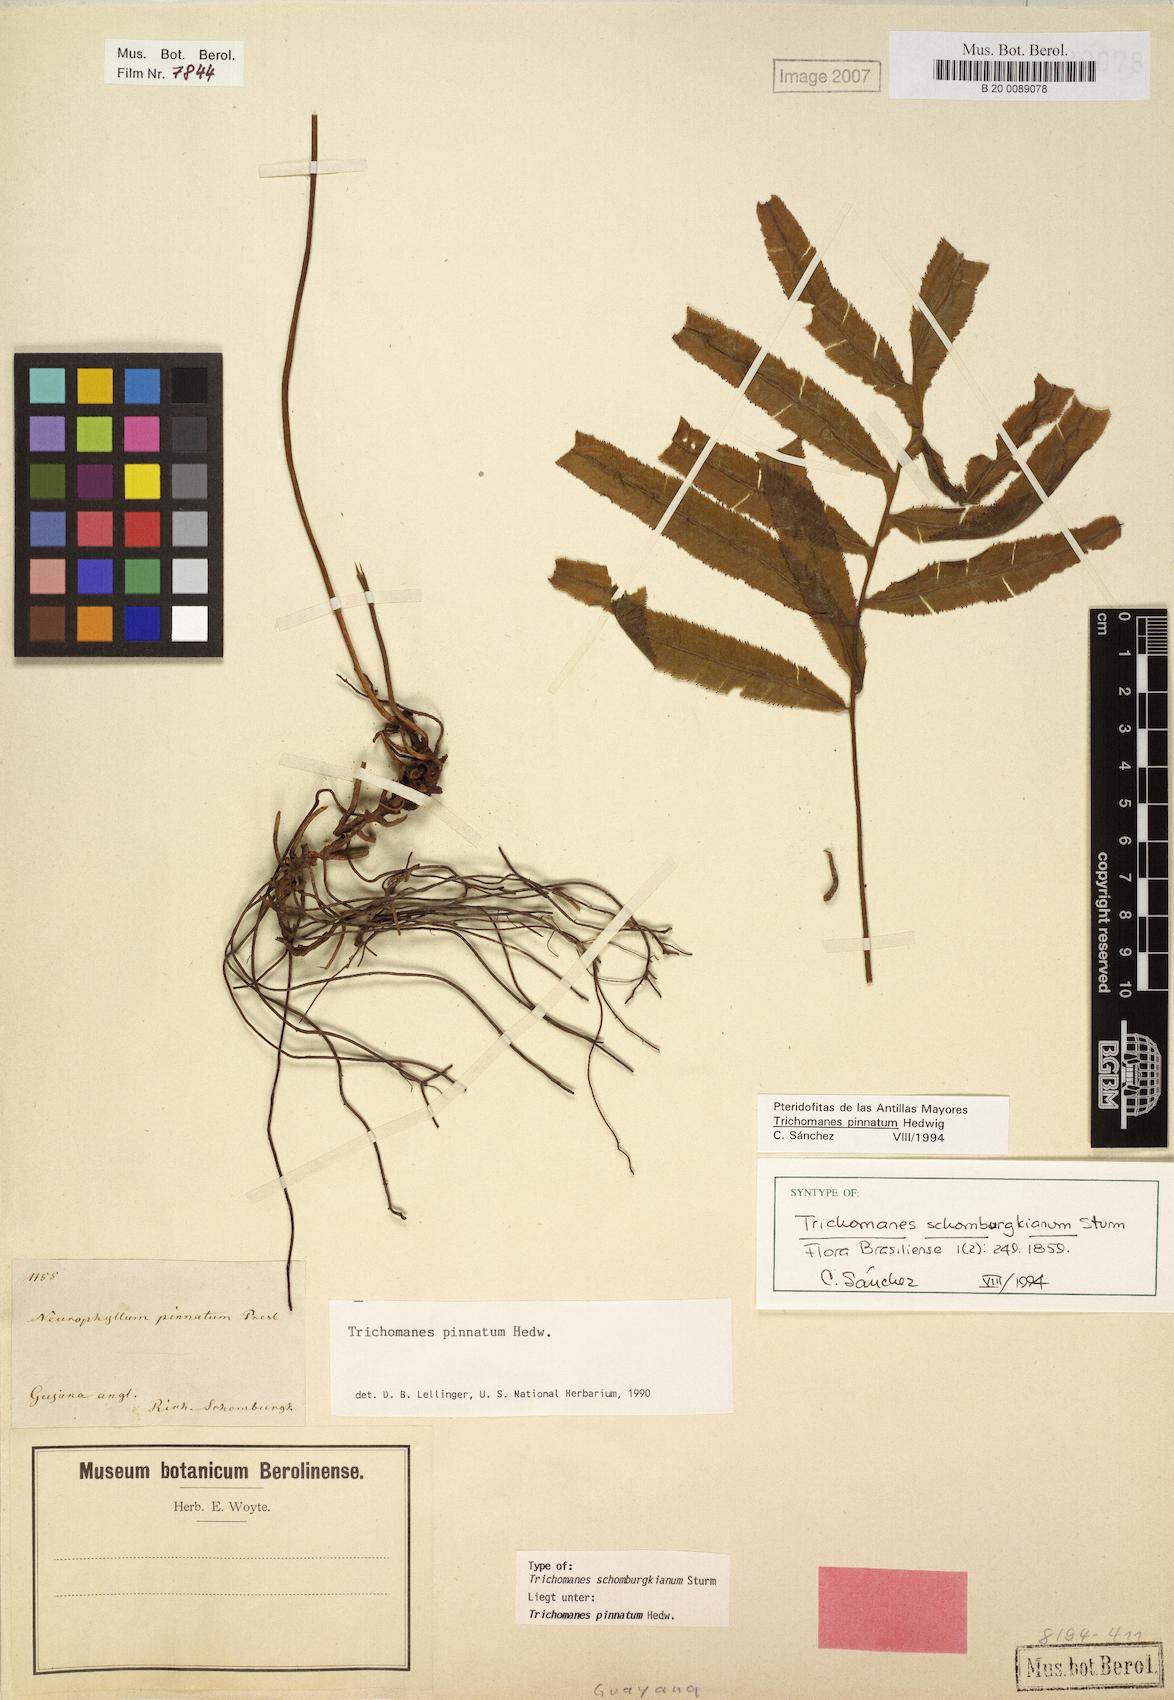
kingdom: Plantae
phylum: Tracheophyta
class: Polypodiopsida
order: Hymenophyllales
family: Hymenophyllaceae
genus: Trichomanes
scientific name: Trichomanes pinnatum
